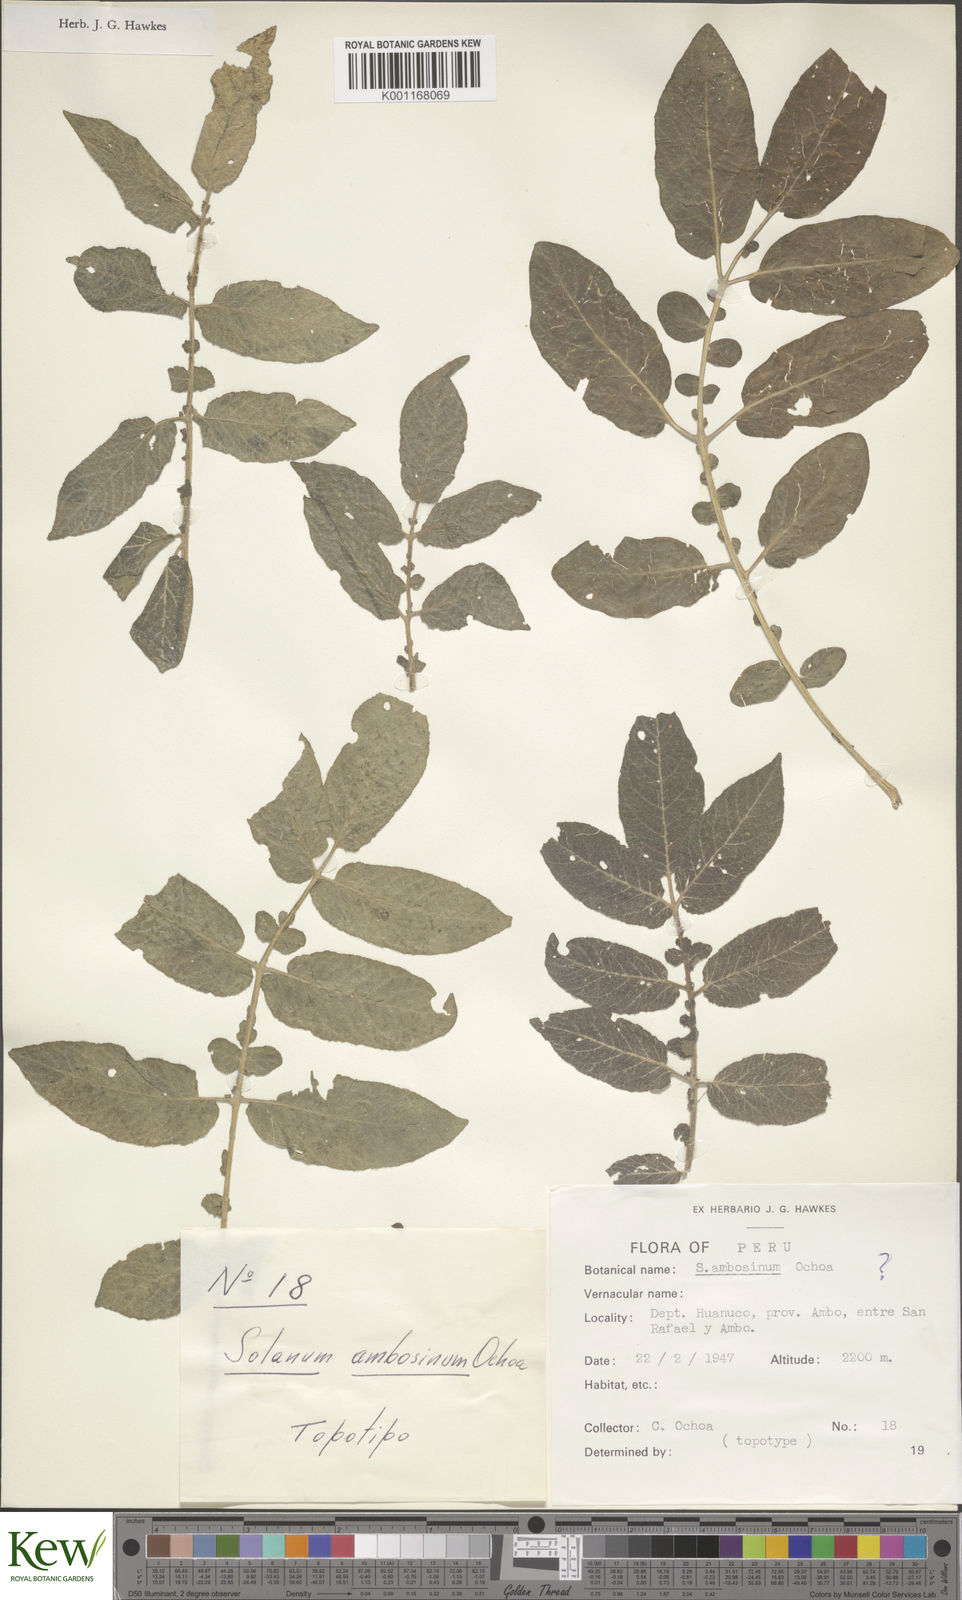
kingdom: Plantae
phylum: Tracheophyta
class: Magnoliopsida
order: Solanales
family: Solanaceae
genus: Solanum
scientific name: Solanum candolleanum
